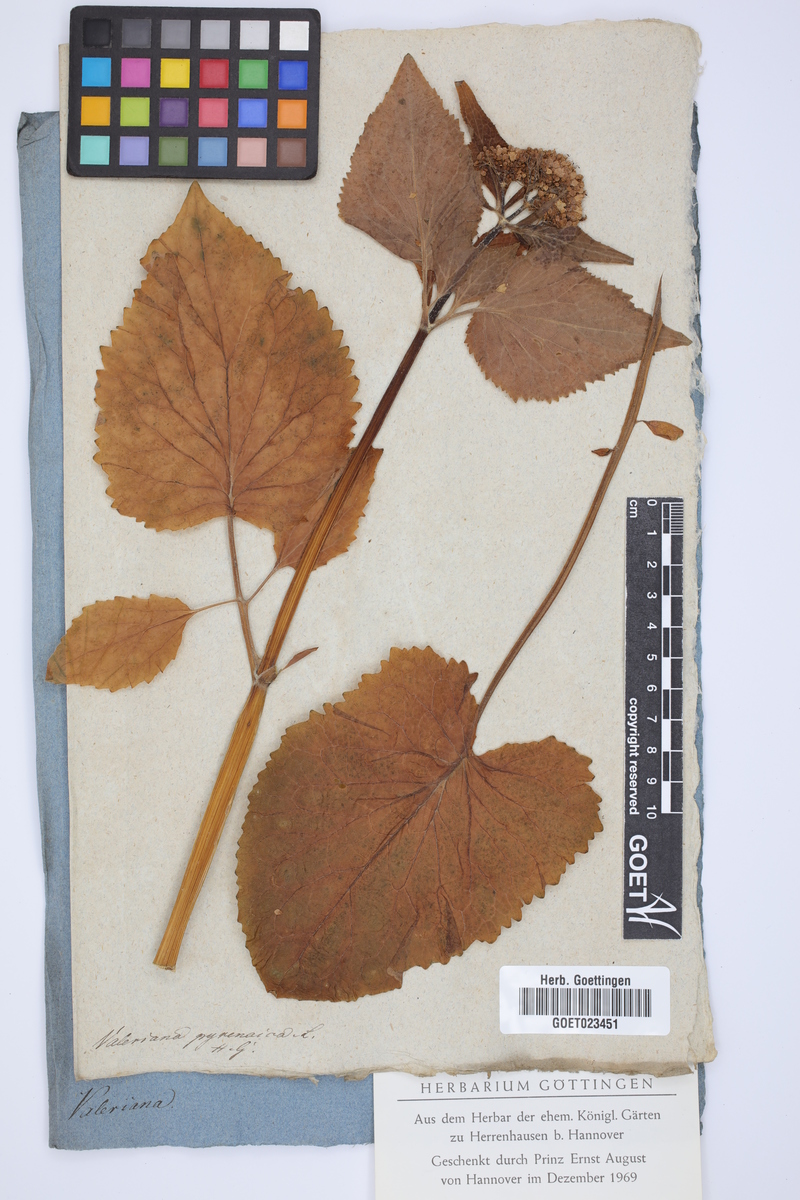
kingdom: Plantae
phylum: Tracheophyta
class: Magnoliopsida
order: Dipsacales
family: Caprifoliaceae
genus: Valeriana
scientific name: Valeriana pyrenaica
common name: Pyrenean valerian
